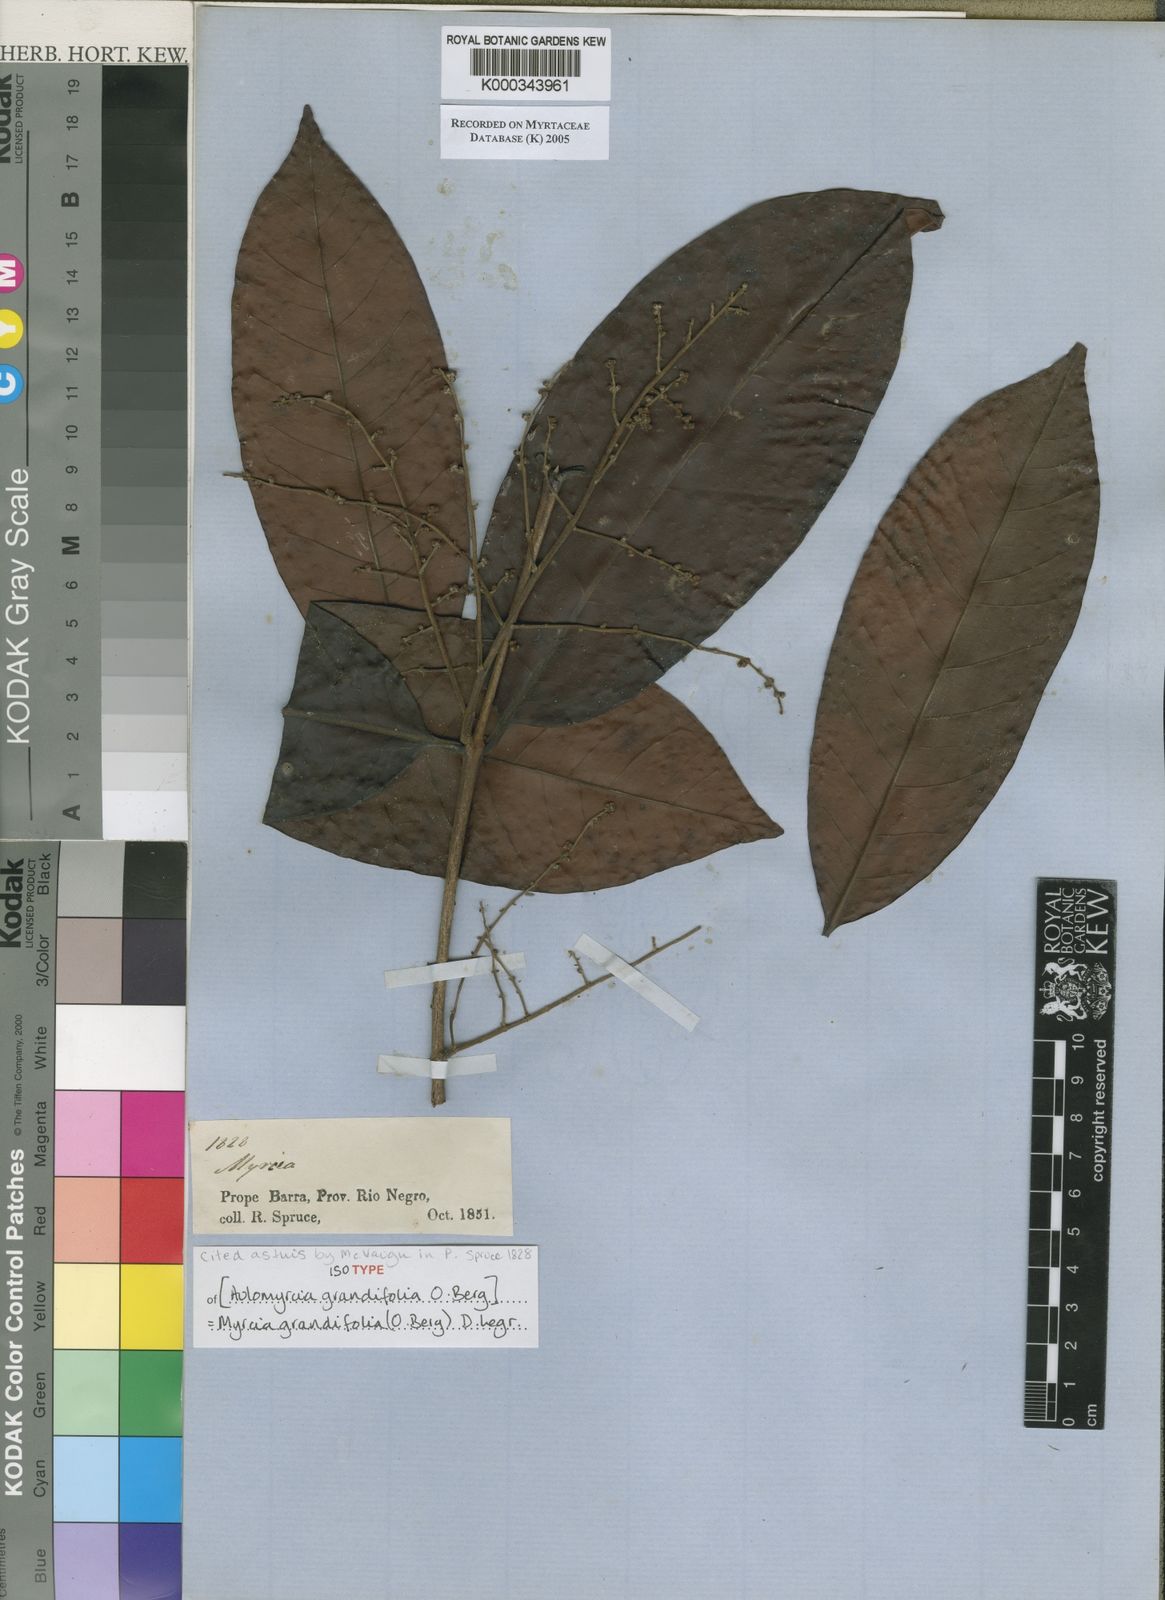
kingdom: Plantae
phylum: Tracheophyta
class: Magnoliopsida
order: Myrtales
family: Myrtaceae
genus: Myrcia
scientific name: Myrcia grandifolia
